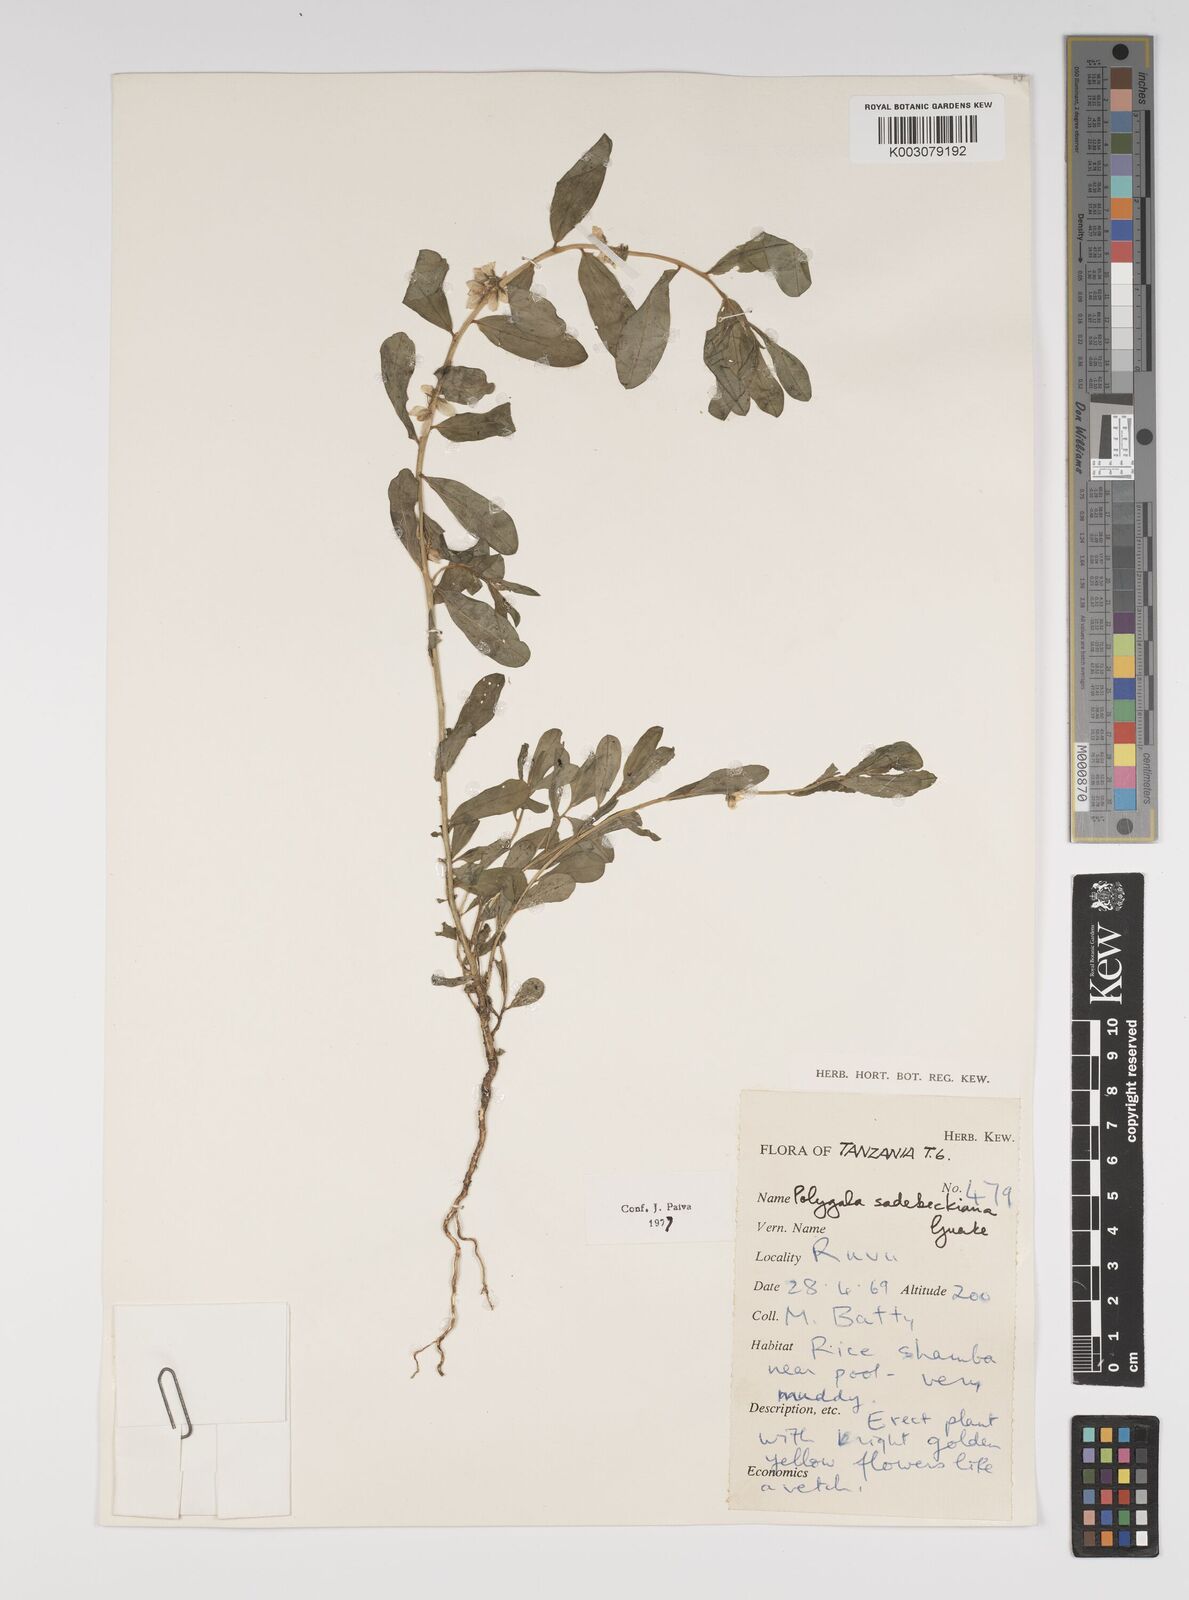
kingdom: Plantae
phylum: Tracheophyta
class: Magnoliopsida
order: Fabales
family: Polygalaceae
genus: Polygala
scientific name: Polygala sadebeckiana
